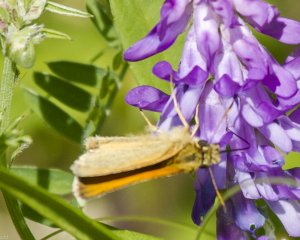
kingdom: Animalia
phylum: Arthropoda
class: Insecta
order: Lepidoptera
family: Hesperiidae
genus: Thymelicus
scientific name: Thymelicus lineola
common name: European Skipper
